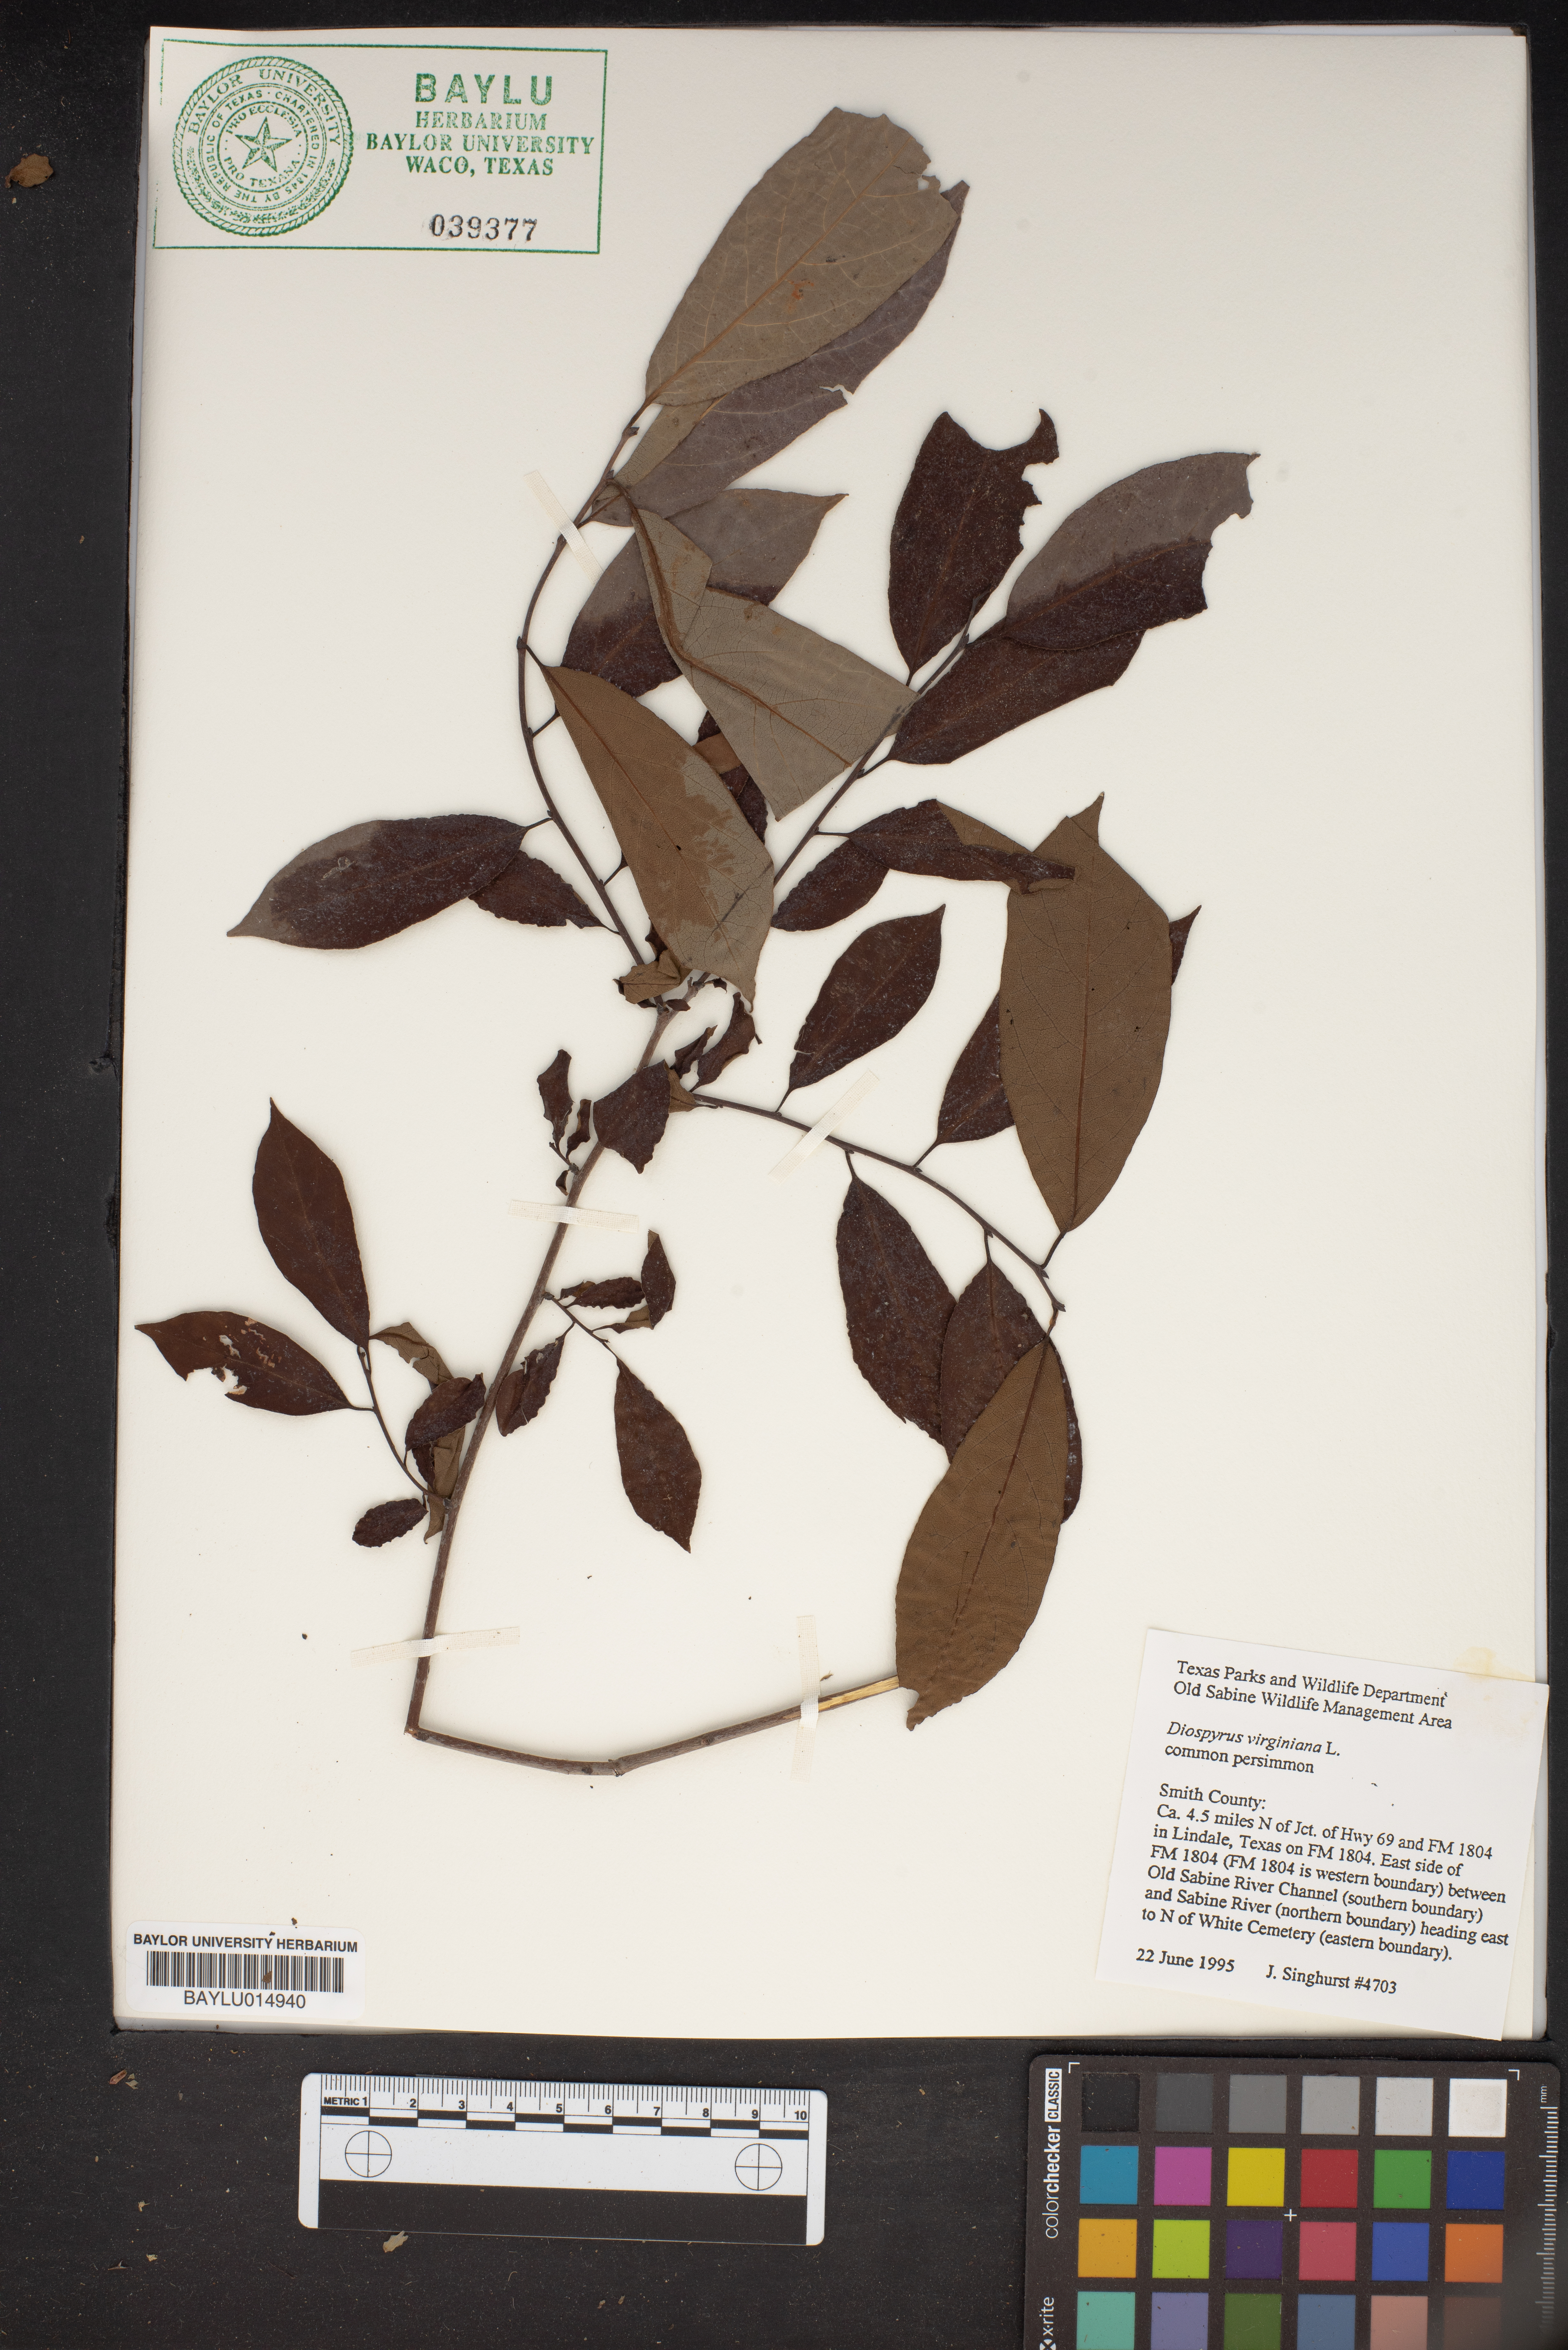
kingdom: Plantae
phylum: Tracheophyta
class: Magnoliopsida
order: Ericales
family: Ebenaceae
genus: Diospyros
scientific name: Diospyros virginiana
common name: Persimmon
